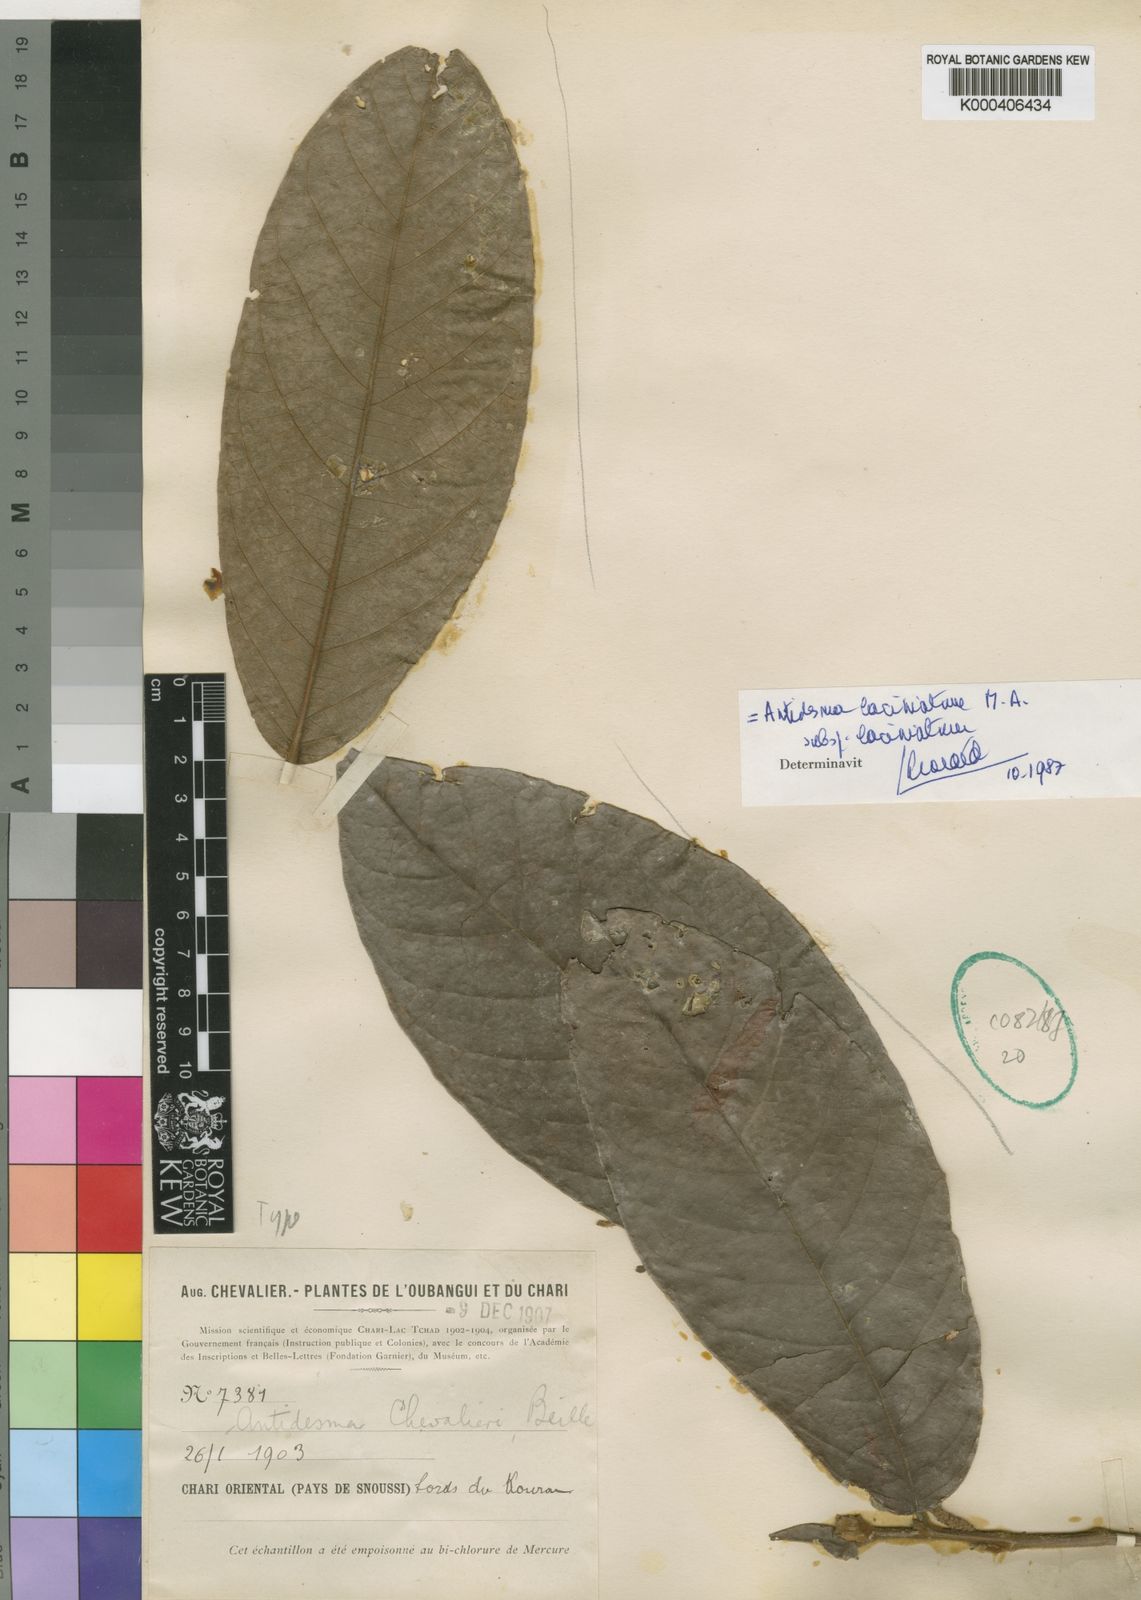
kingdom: Plantae
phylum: Tracheophyta
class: Magnoliopsida
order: Malpighiales
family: Phyllanthaceae
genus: Antidesma
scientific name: Antidesma
